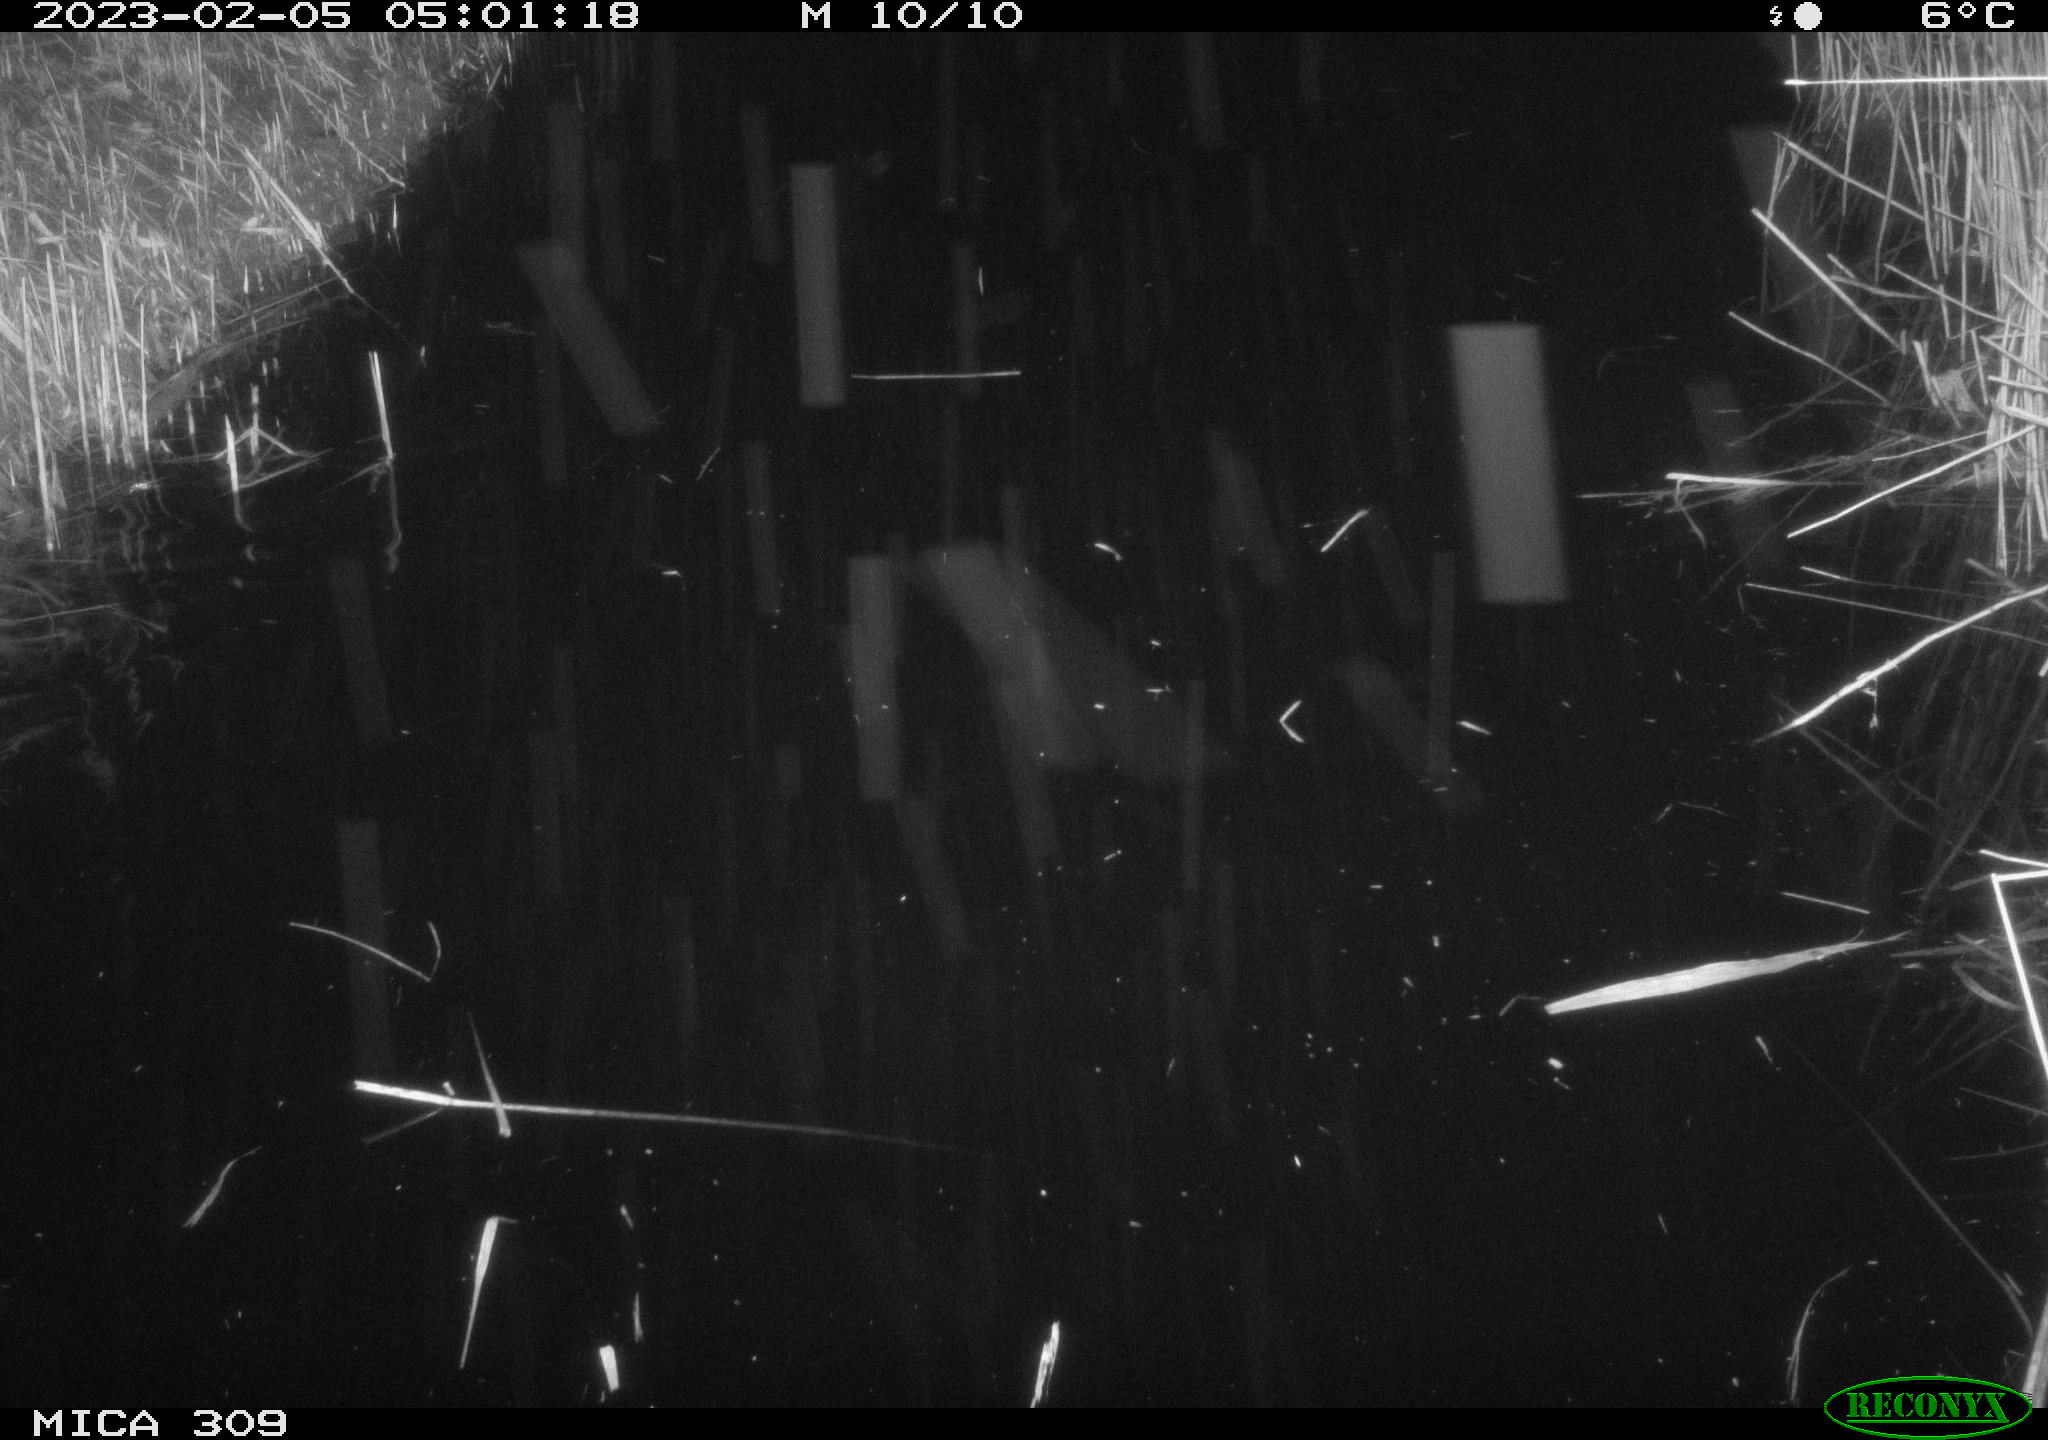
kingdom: Animalia
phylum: Chordata
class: Mammalia
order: Rodentia
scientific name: Rodentia
